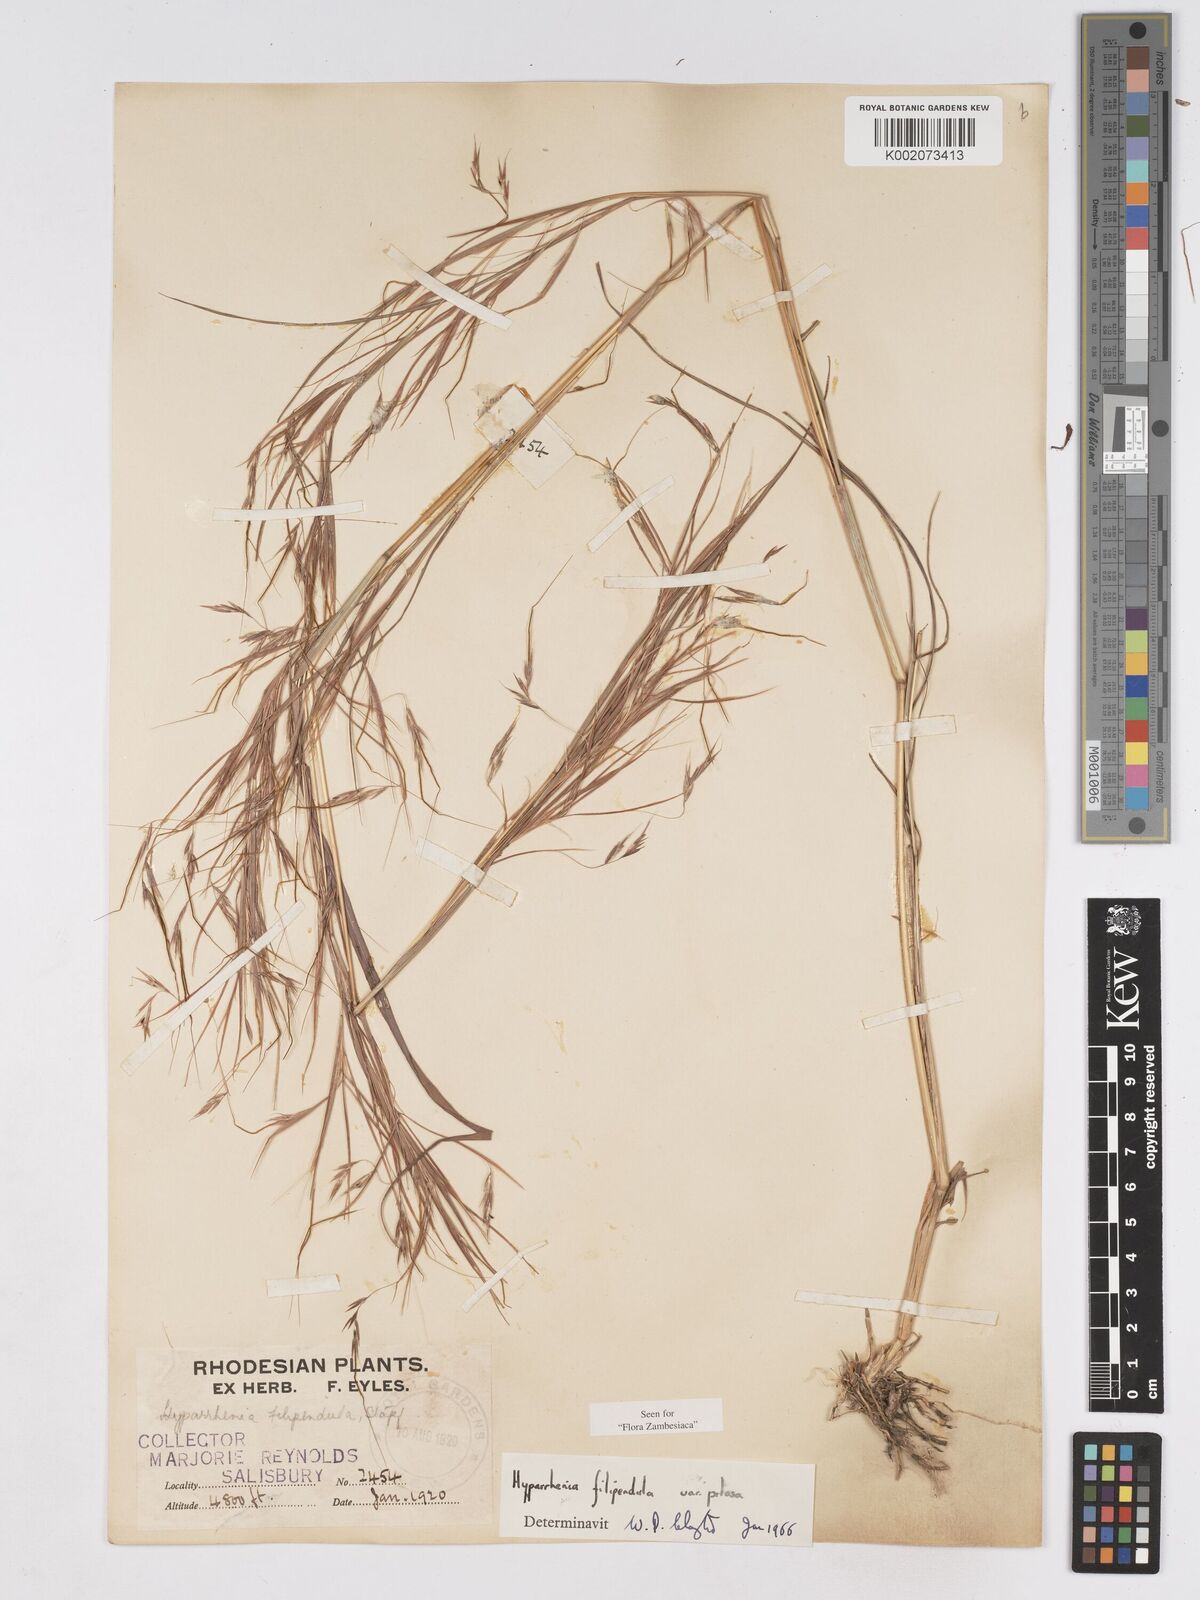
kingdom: Plantae
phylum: Tracheophyta
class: Liliopsida
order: Poales
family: Poaceae
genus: Hyparrhenia
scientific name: Hyparrhenia filipendula
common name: Tambookie grass
